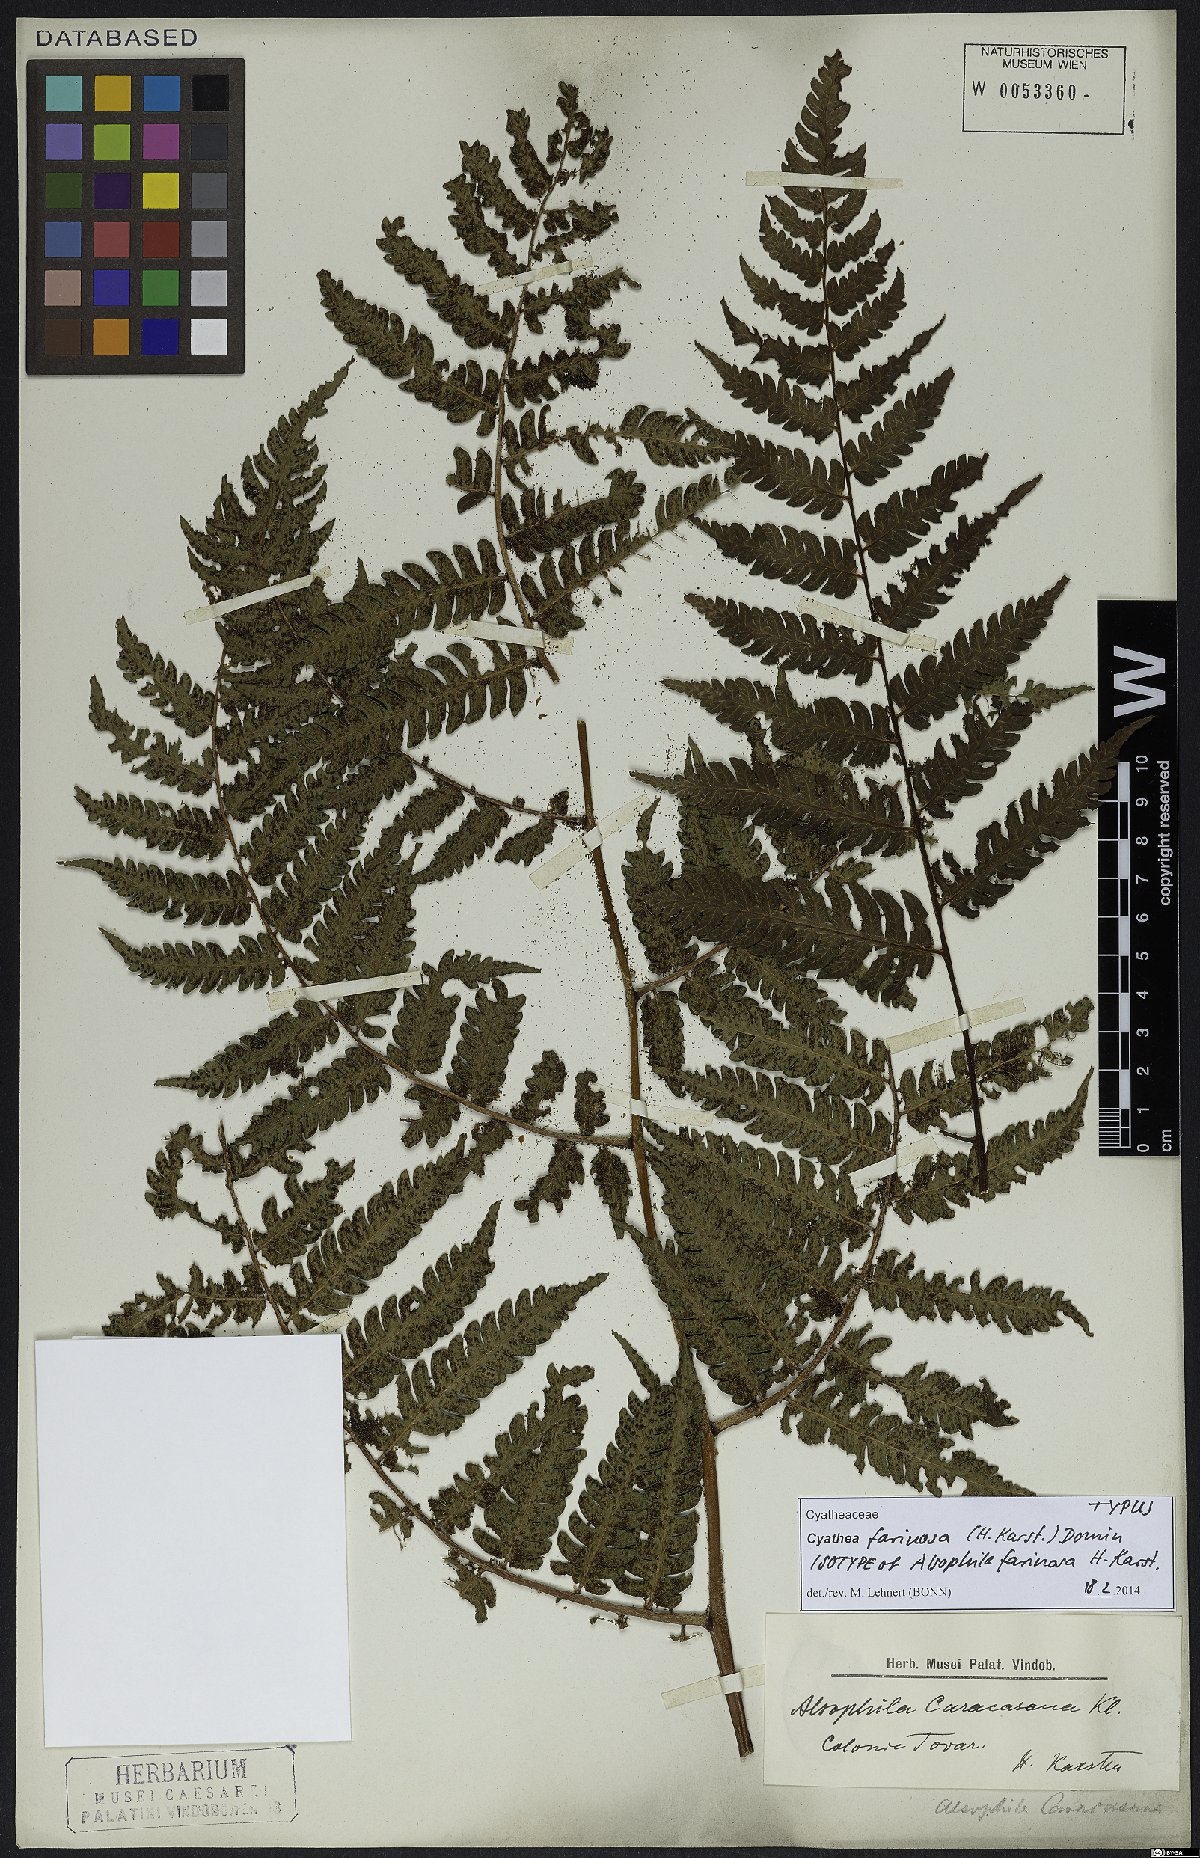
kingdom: Plantae
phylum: Tracheophyta
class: Polypodiopsida
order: Cyatheales
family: Cyatheaceae
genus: Cyathea
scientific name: Cyathea gibbosa
